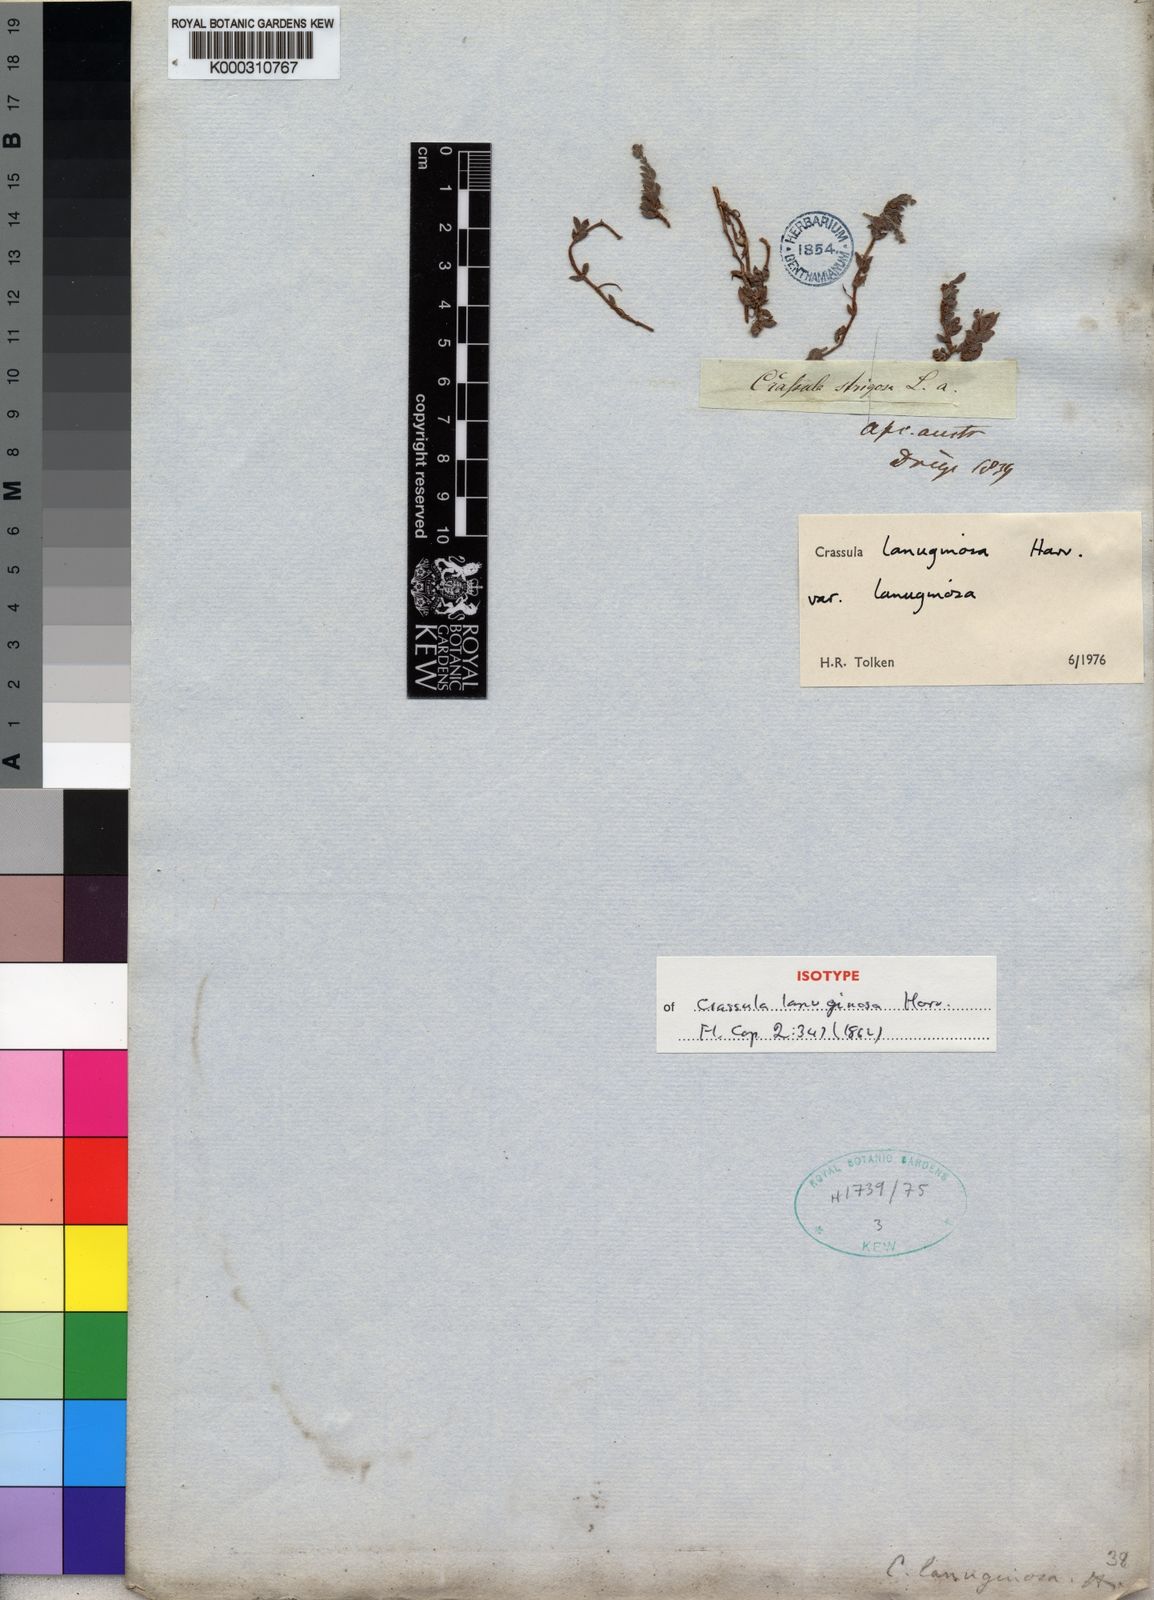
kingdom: Plantae
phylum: Tracheophyta
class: Magnoliopsida
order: Saxifragales
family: Crassulaceae
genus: Crassula
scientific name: Crassula lanuginosa
